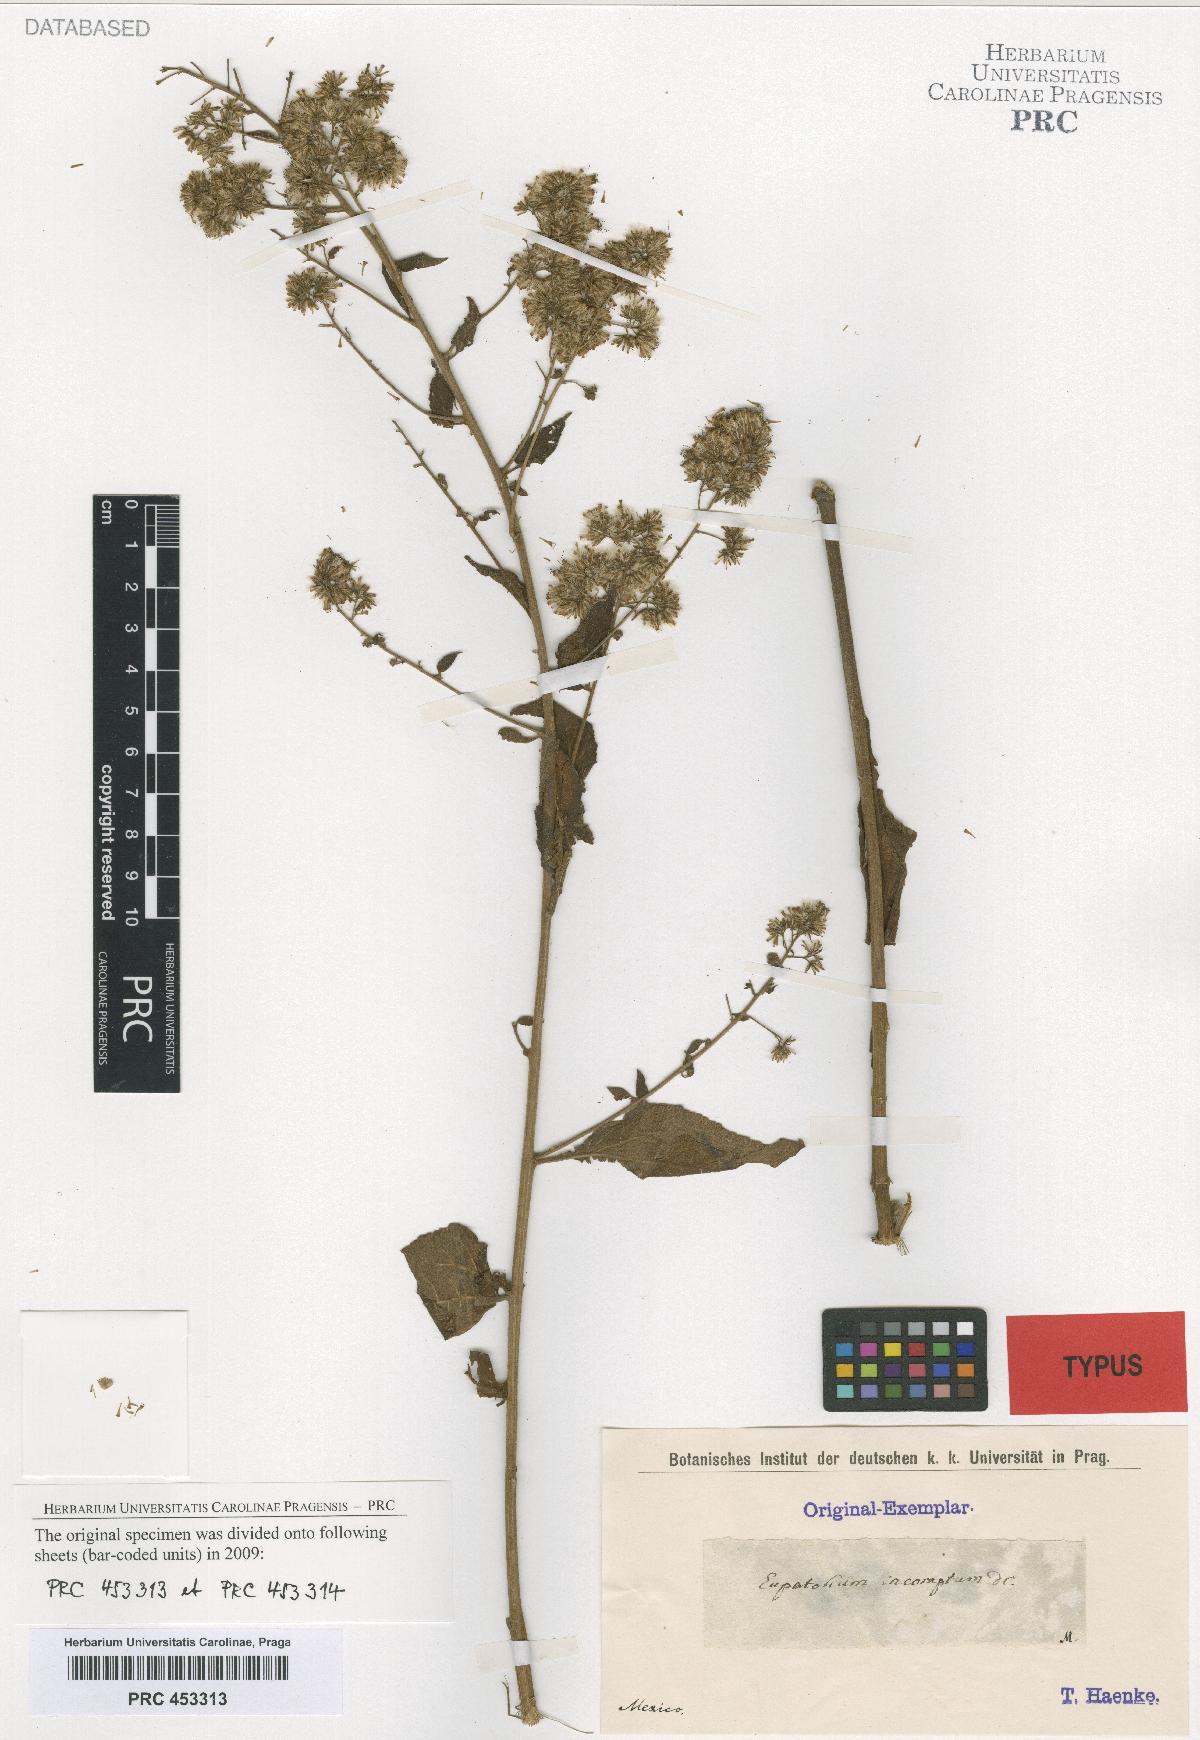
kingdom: Plantae
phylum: Tracheophyta
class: Magnoliopsida
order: Asterales
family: Asteraceae
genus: Decachaeta
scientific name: Decachaeta incompta
